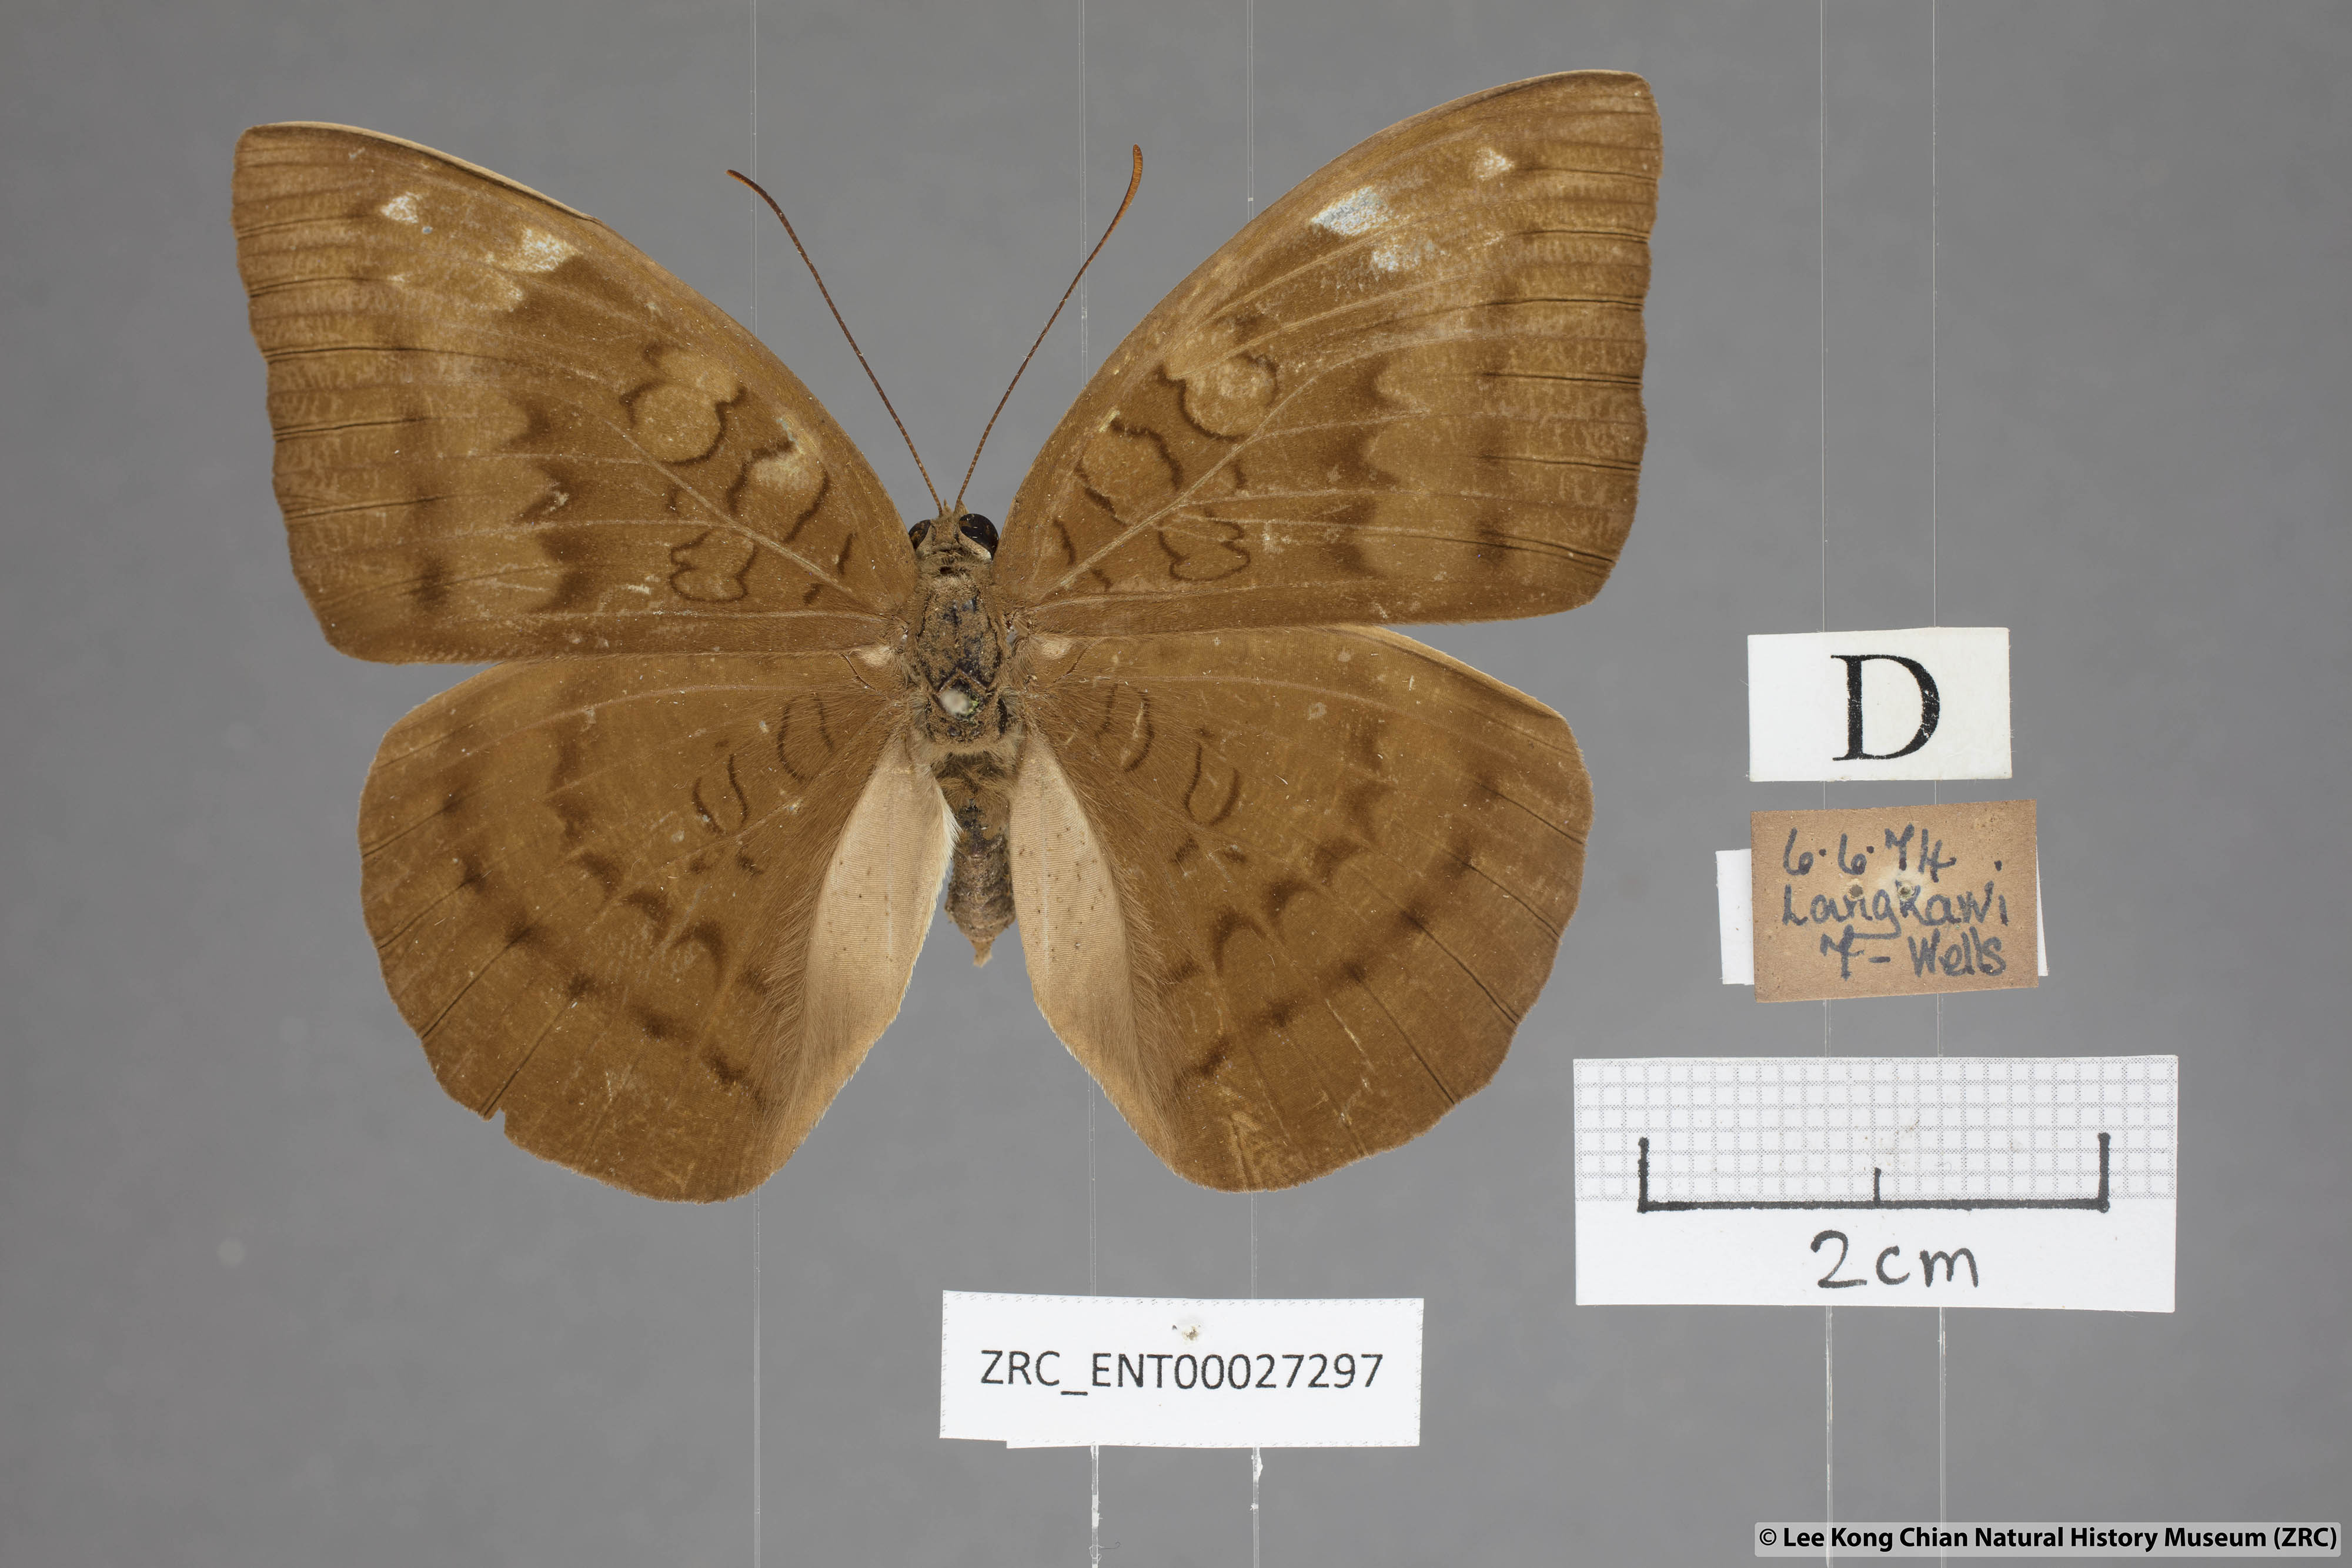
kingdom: Animalia
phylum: Arthropoda
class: Insecta
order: Lepidoptera
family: Nymphalidae
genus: Tanaecia
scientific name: Tanaecia julii
